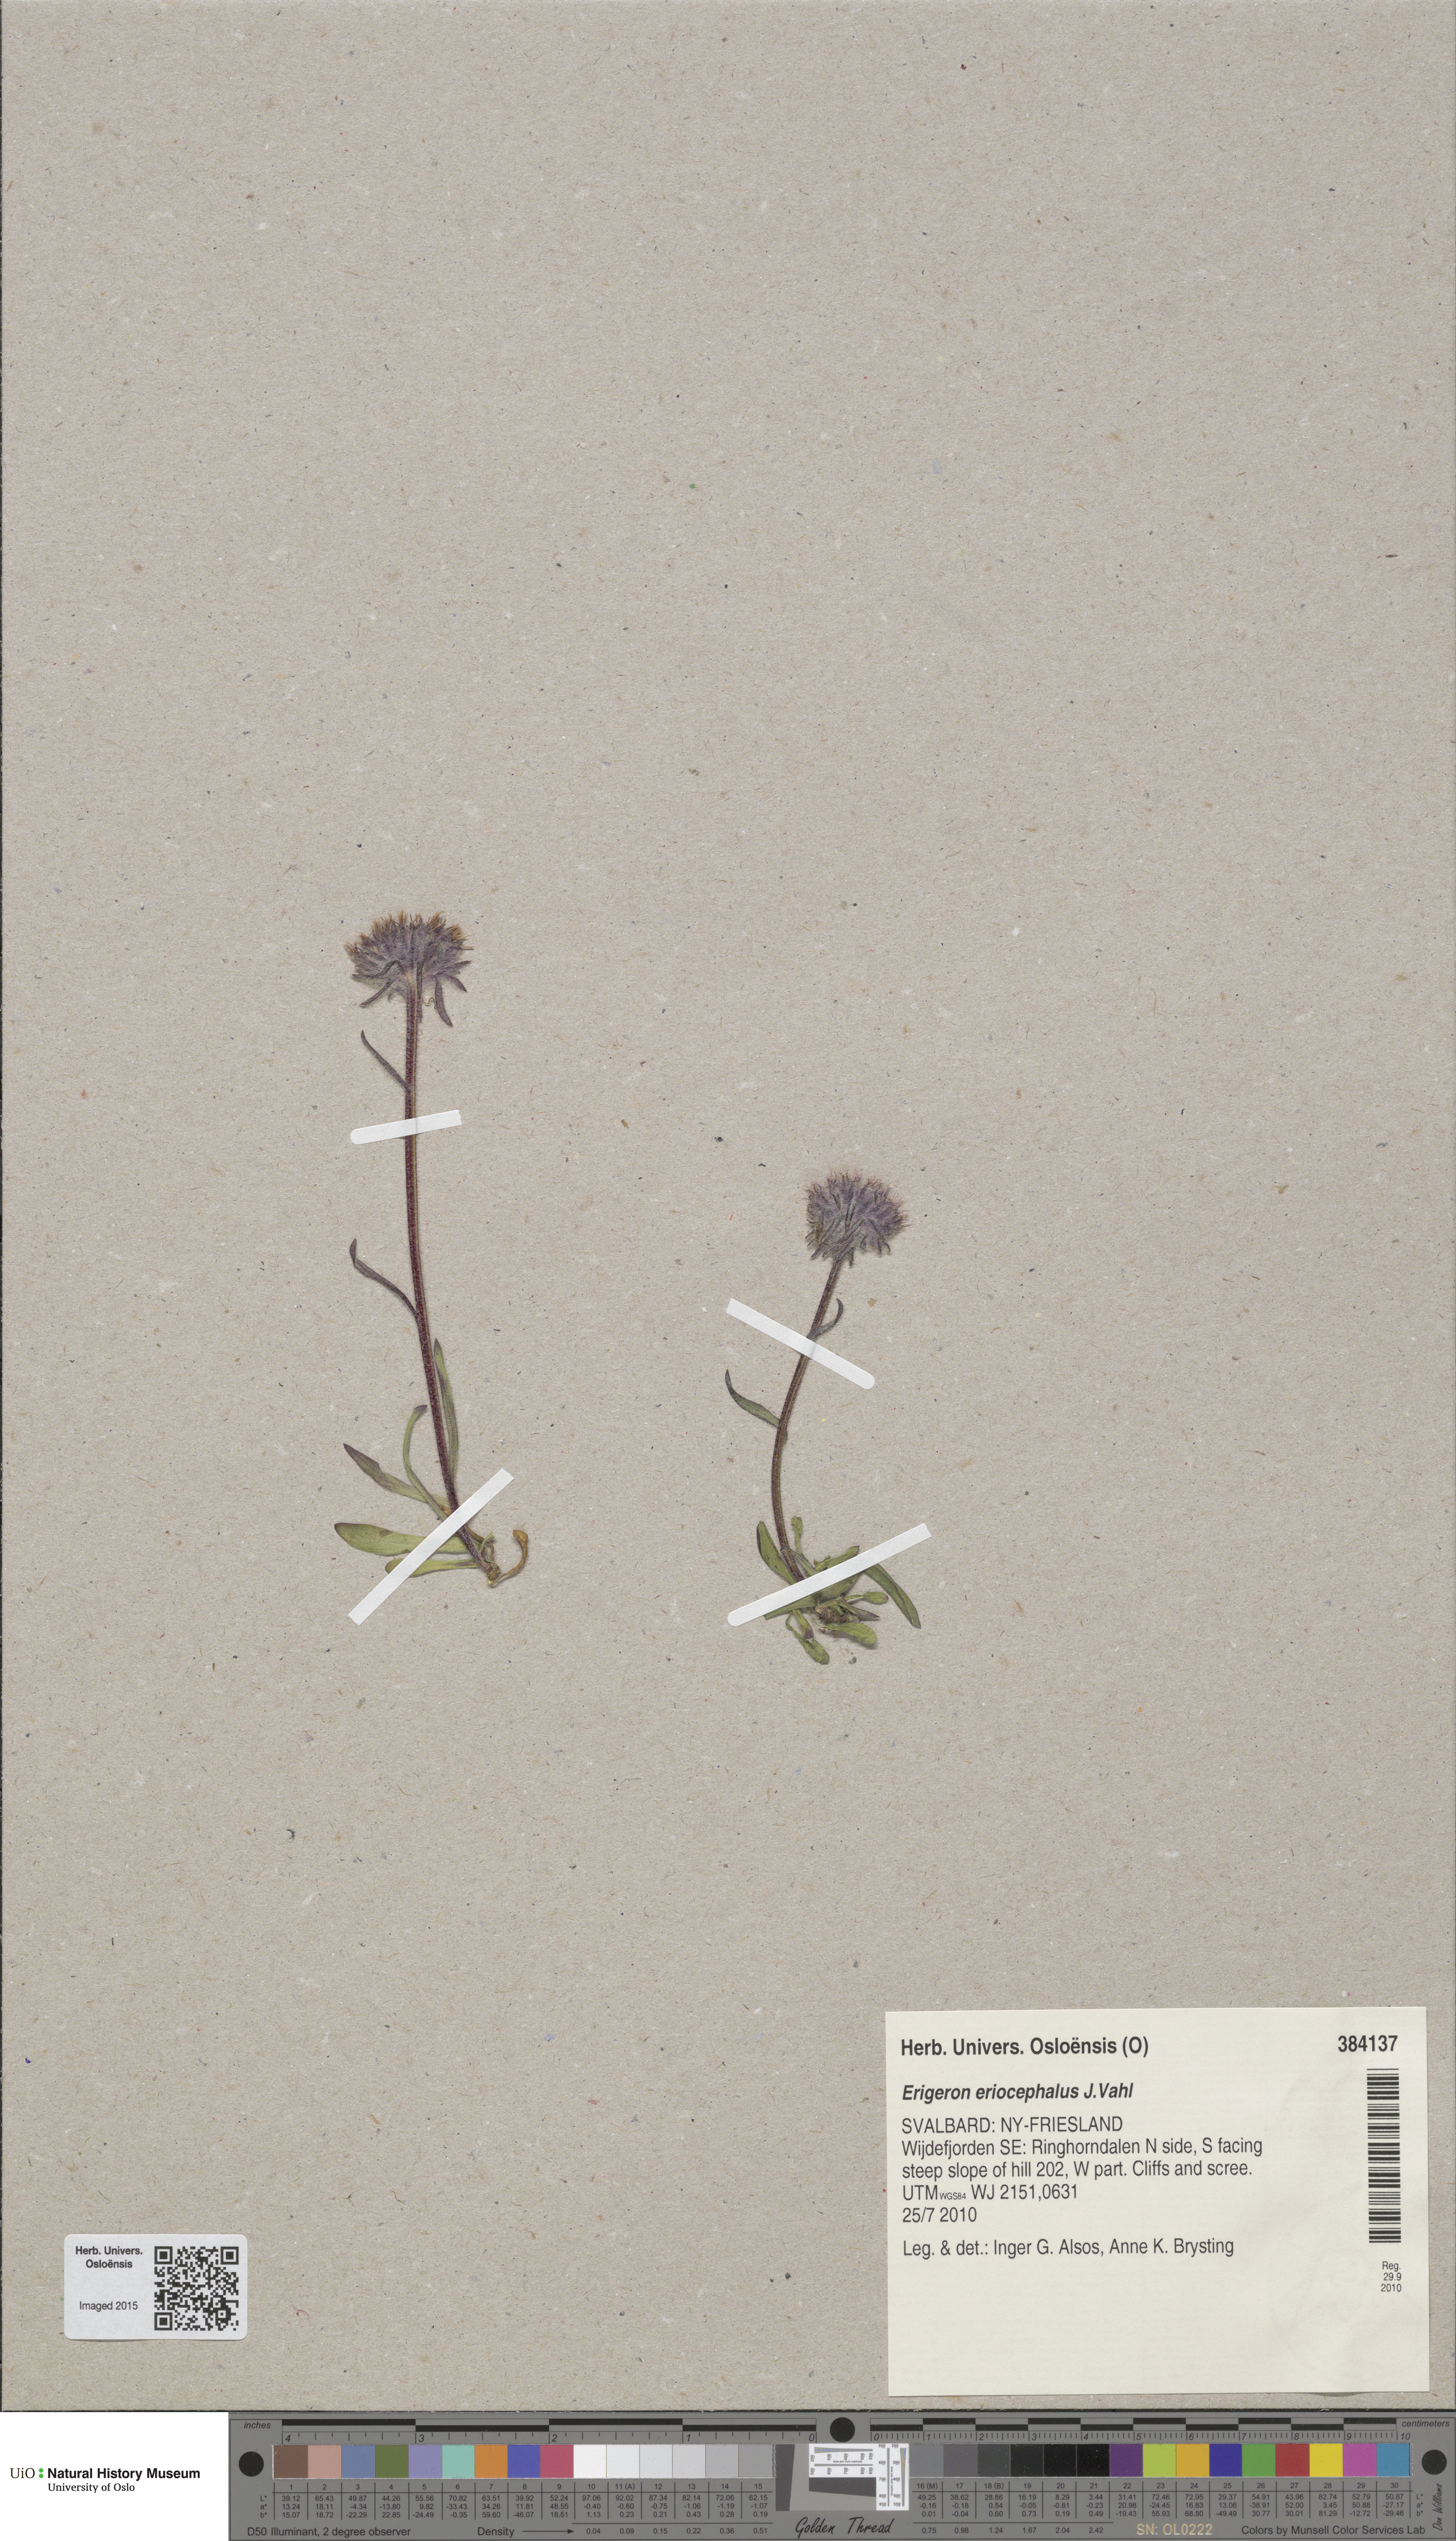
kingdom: Plantae
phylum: Tracheophyta
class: Magnoliopsida
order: Asterales
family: Asteraceae
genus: Erigeron
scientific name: Erigeron eriocephalus
